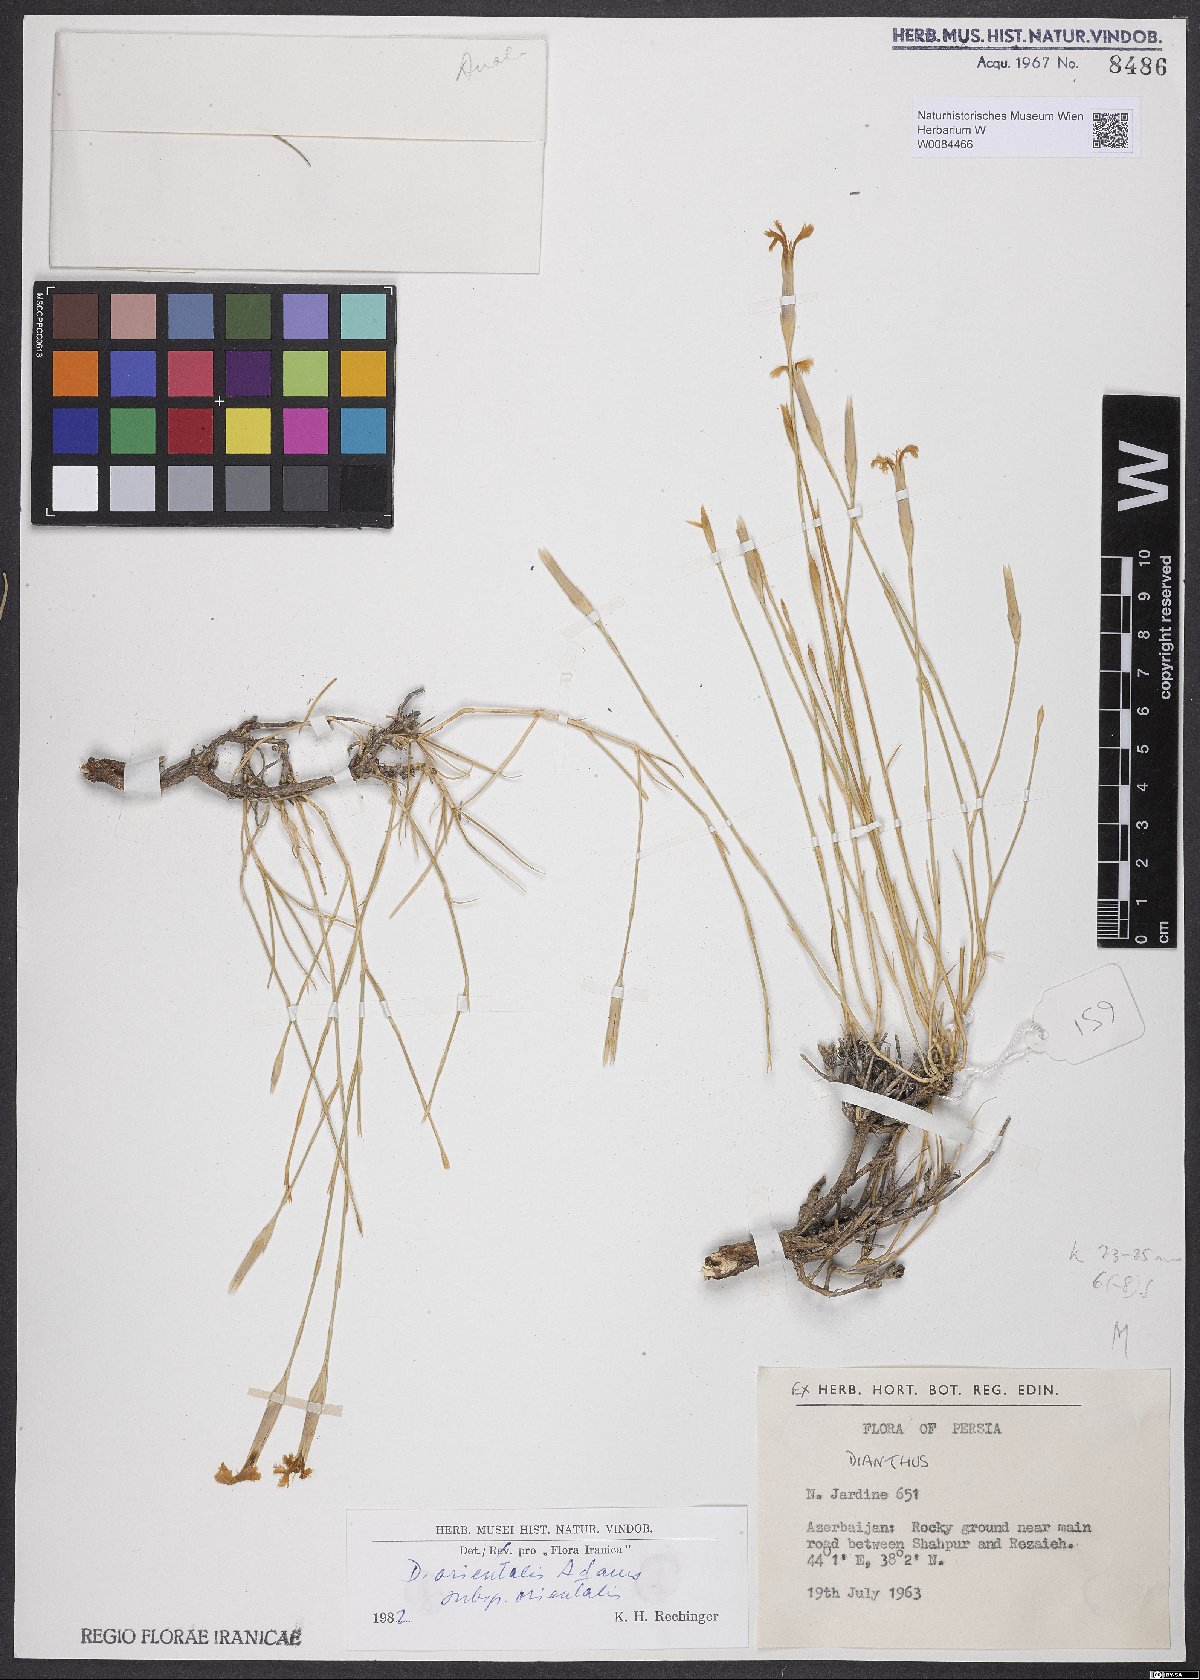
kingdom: Plantae
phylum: Tracheophyta
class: Magnoliopsida
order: Caryophyllales
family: Caryophyllaceae
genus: Dianthus
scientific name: Dianthus orientalis
